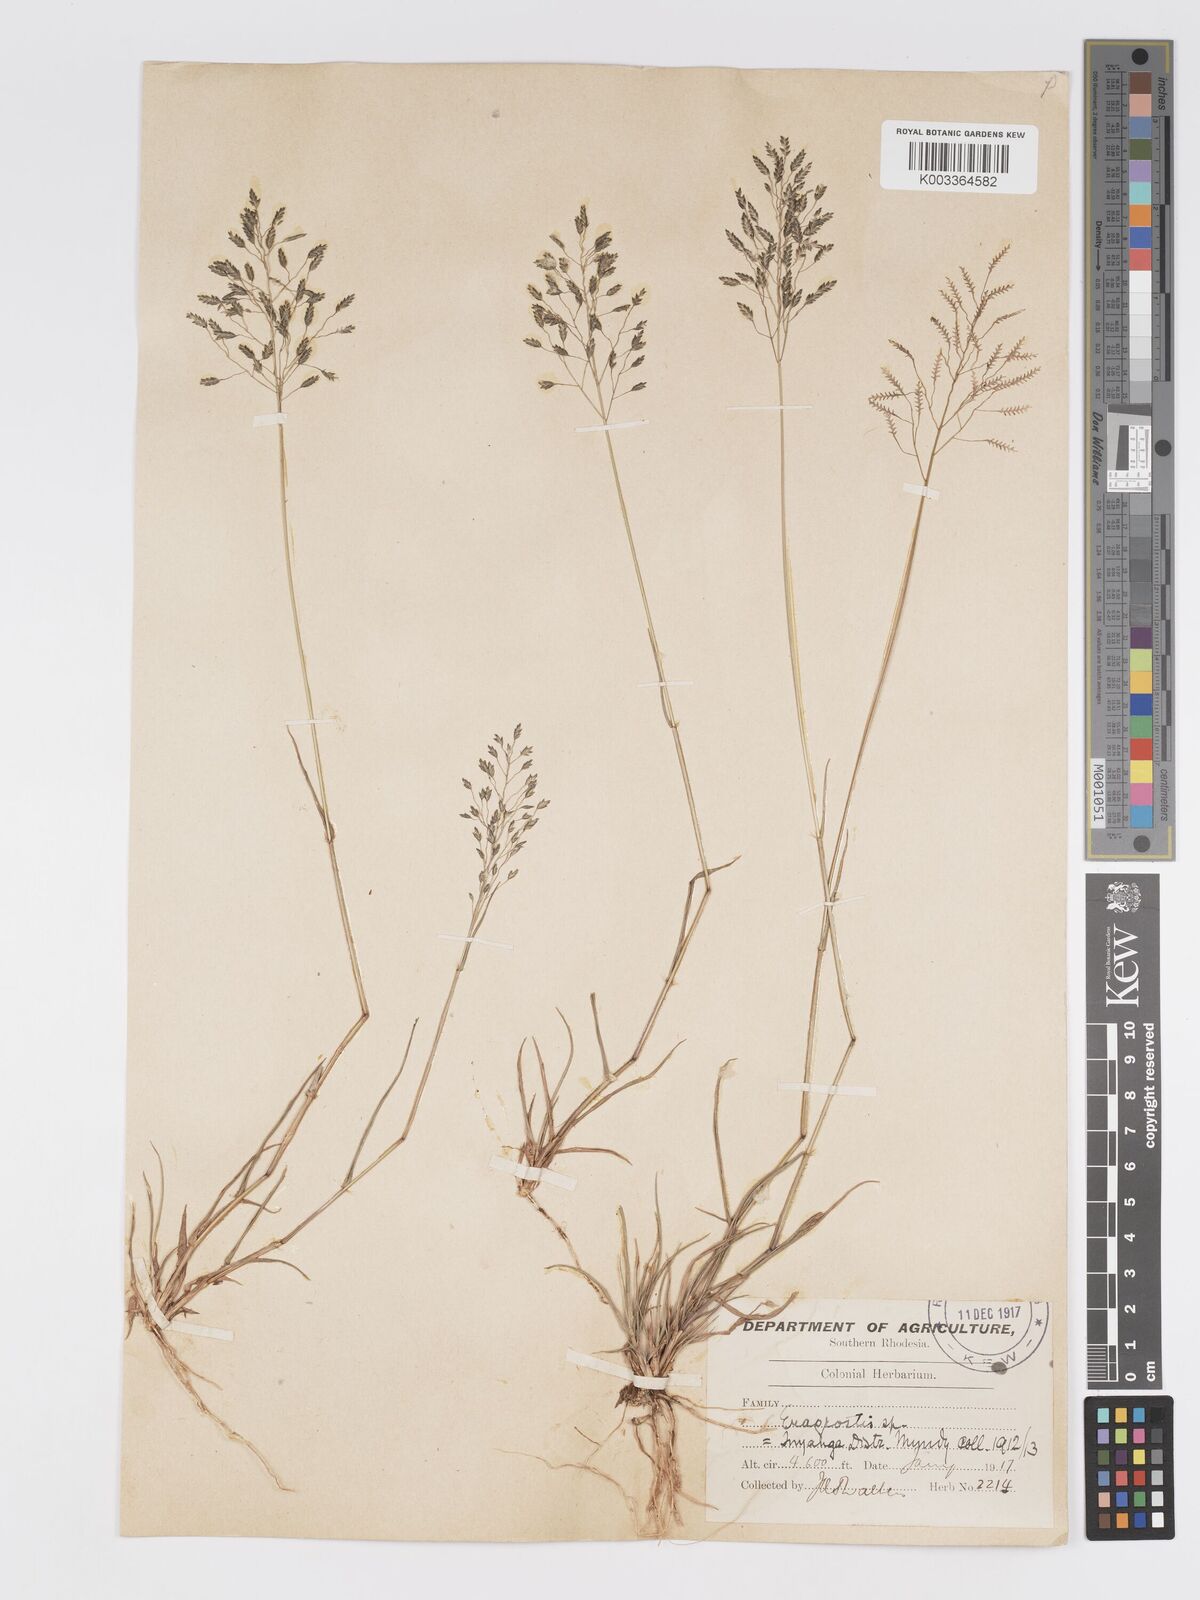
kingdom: Plantae
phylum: Tracheophyta
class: Liliopsida
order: Poales
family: Poaceae
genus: Eragrostis
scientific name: Eragrostis patentipilosa
